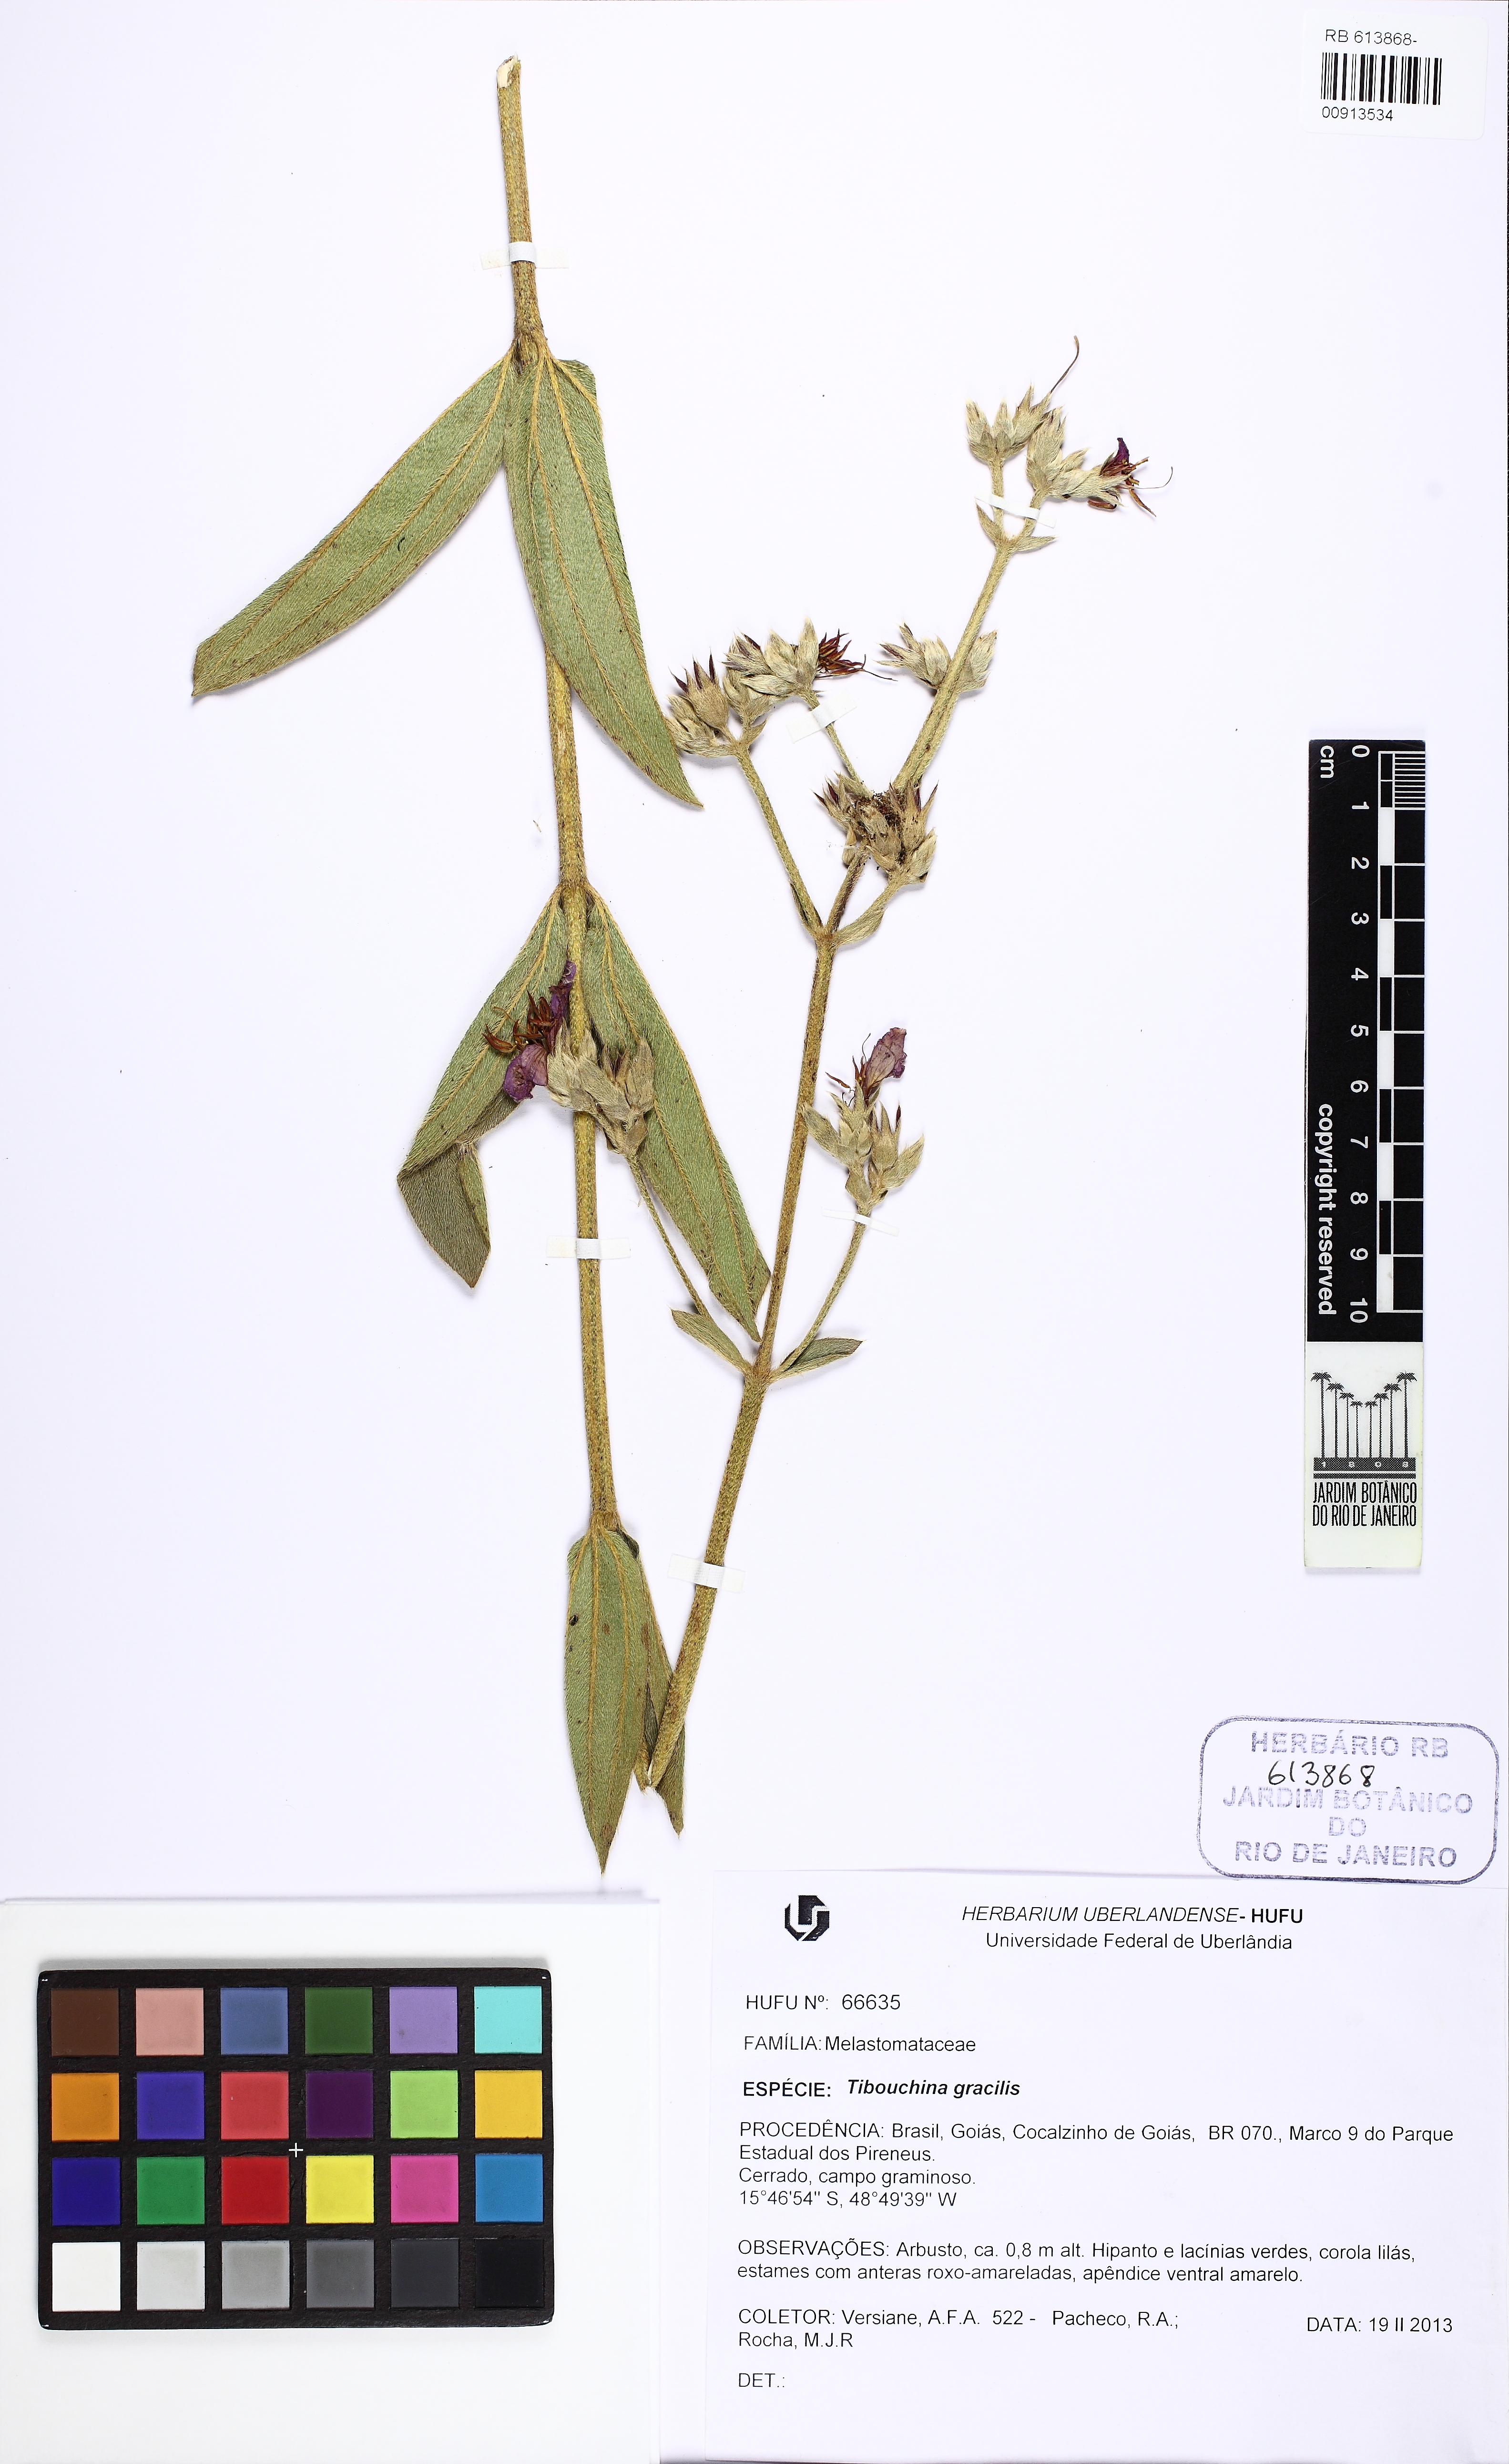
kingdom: Plantae
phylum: Tracheophyta
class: Magnoliopsida
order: Myrtales
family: Melastomataceae
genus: Chaetogastra
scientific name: Chaetogastra gracilis
